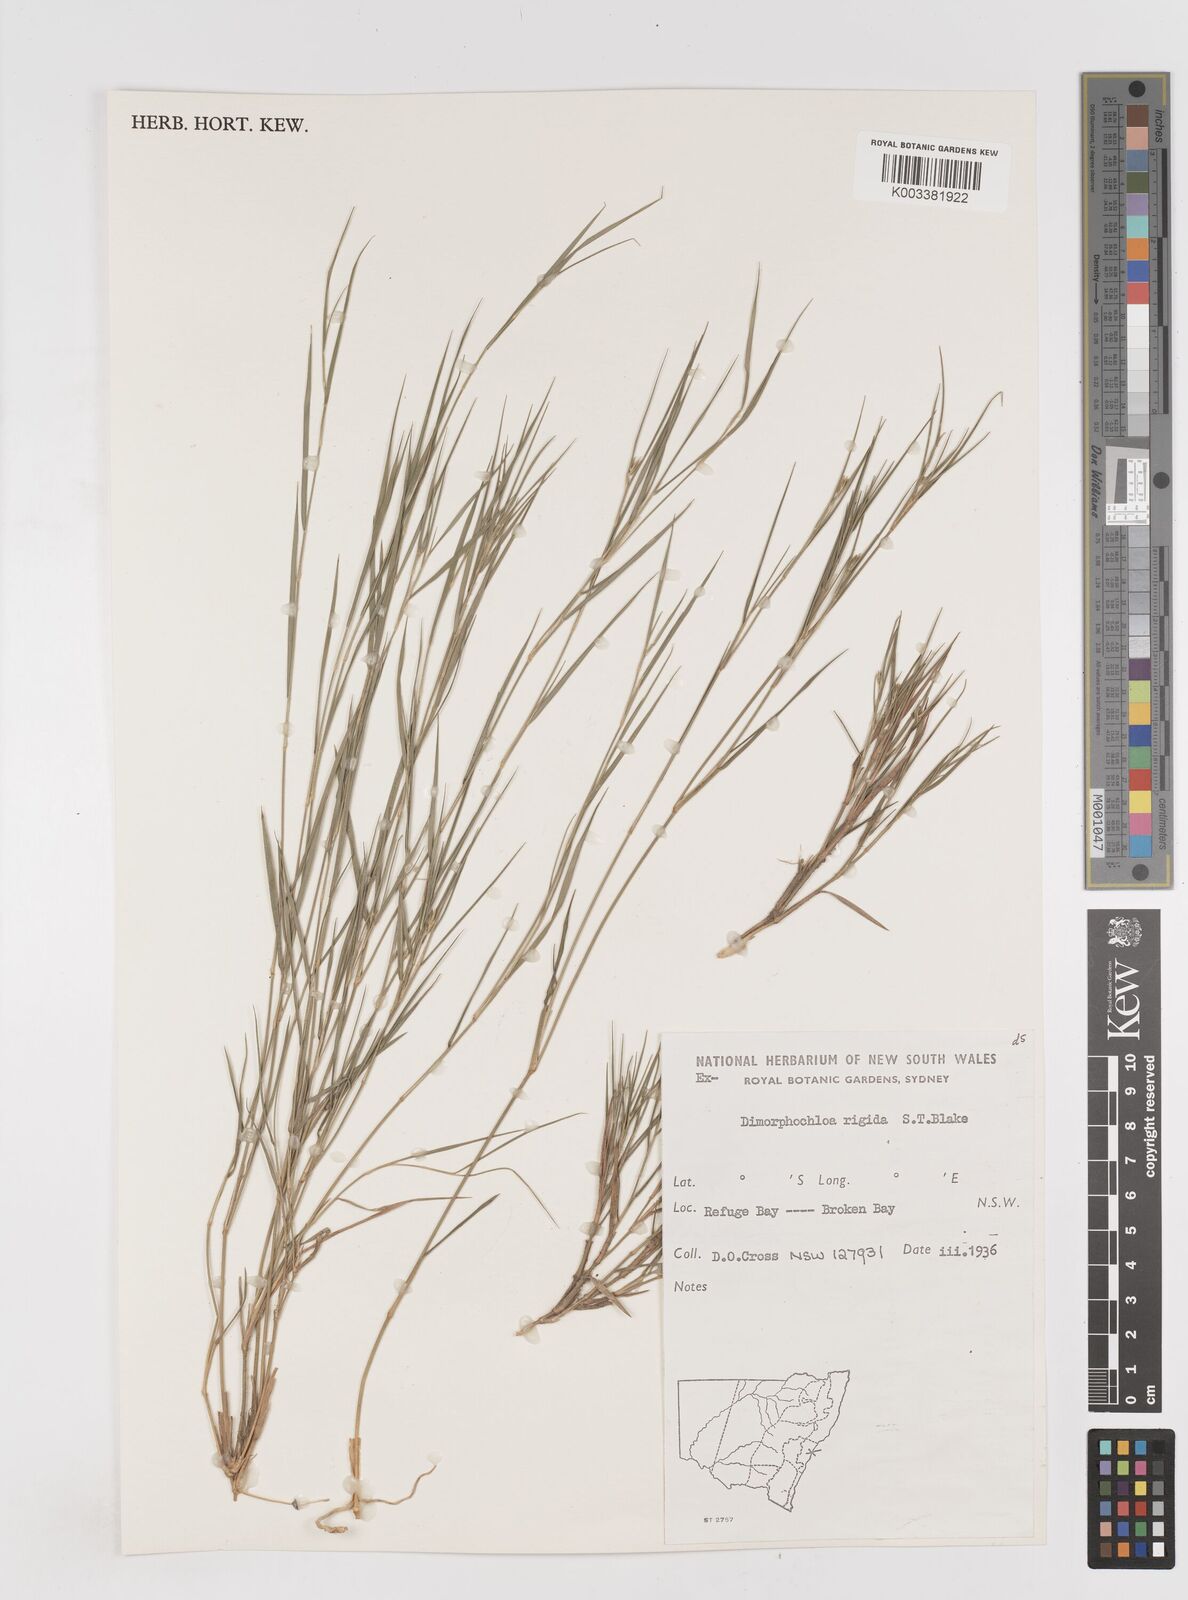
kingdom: Plantae
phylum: Tracheophyta
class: Liliopsida
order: Poales
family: Poaceae
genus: Dimorphochloa
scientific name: Dimorphochloa rigida
